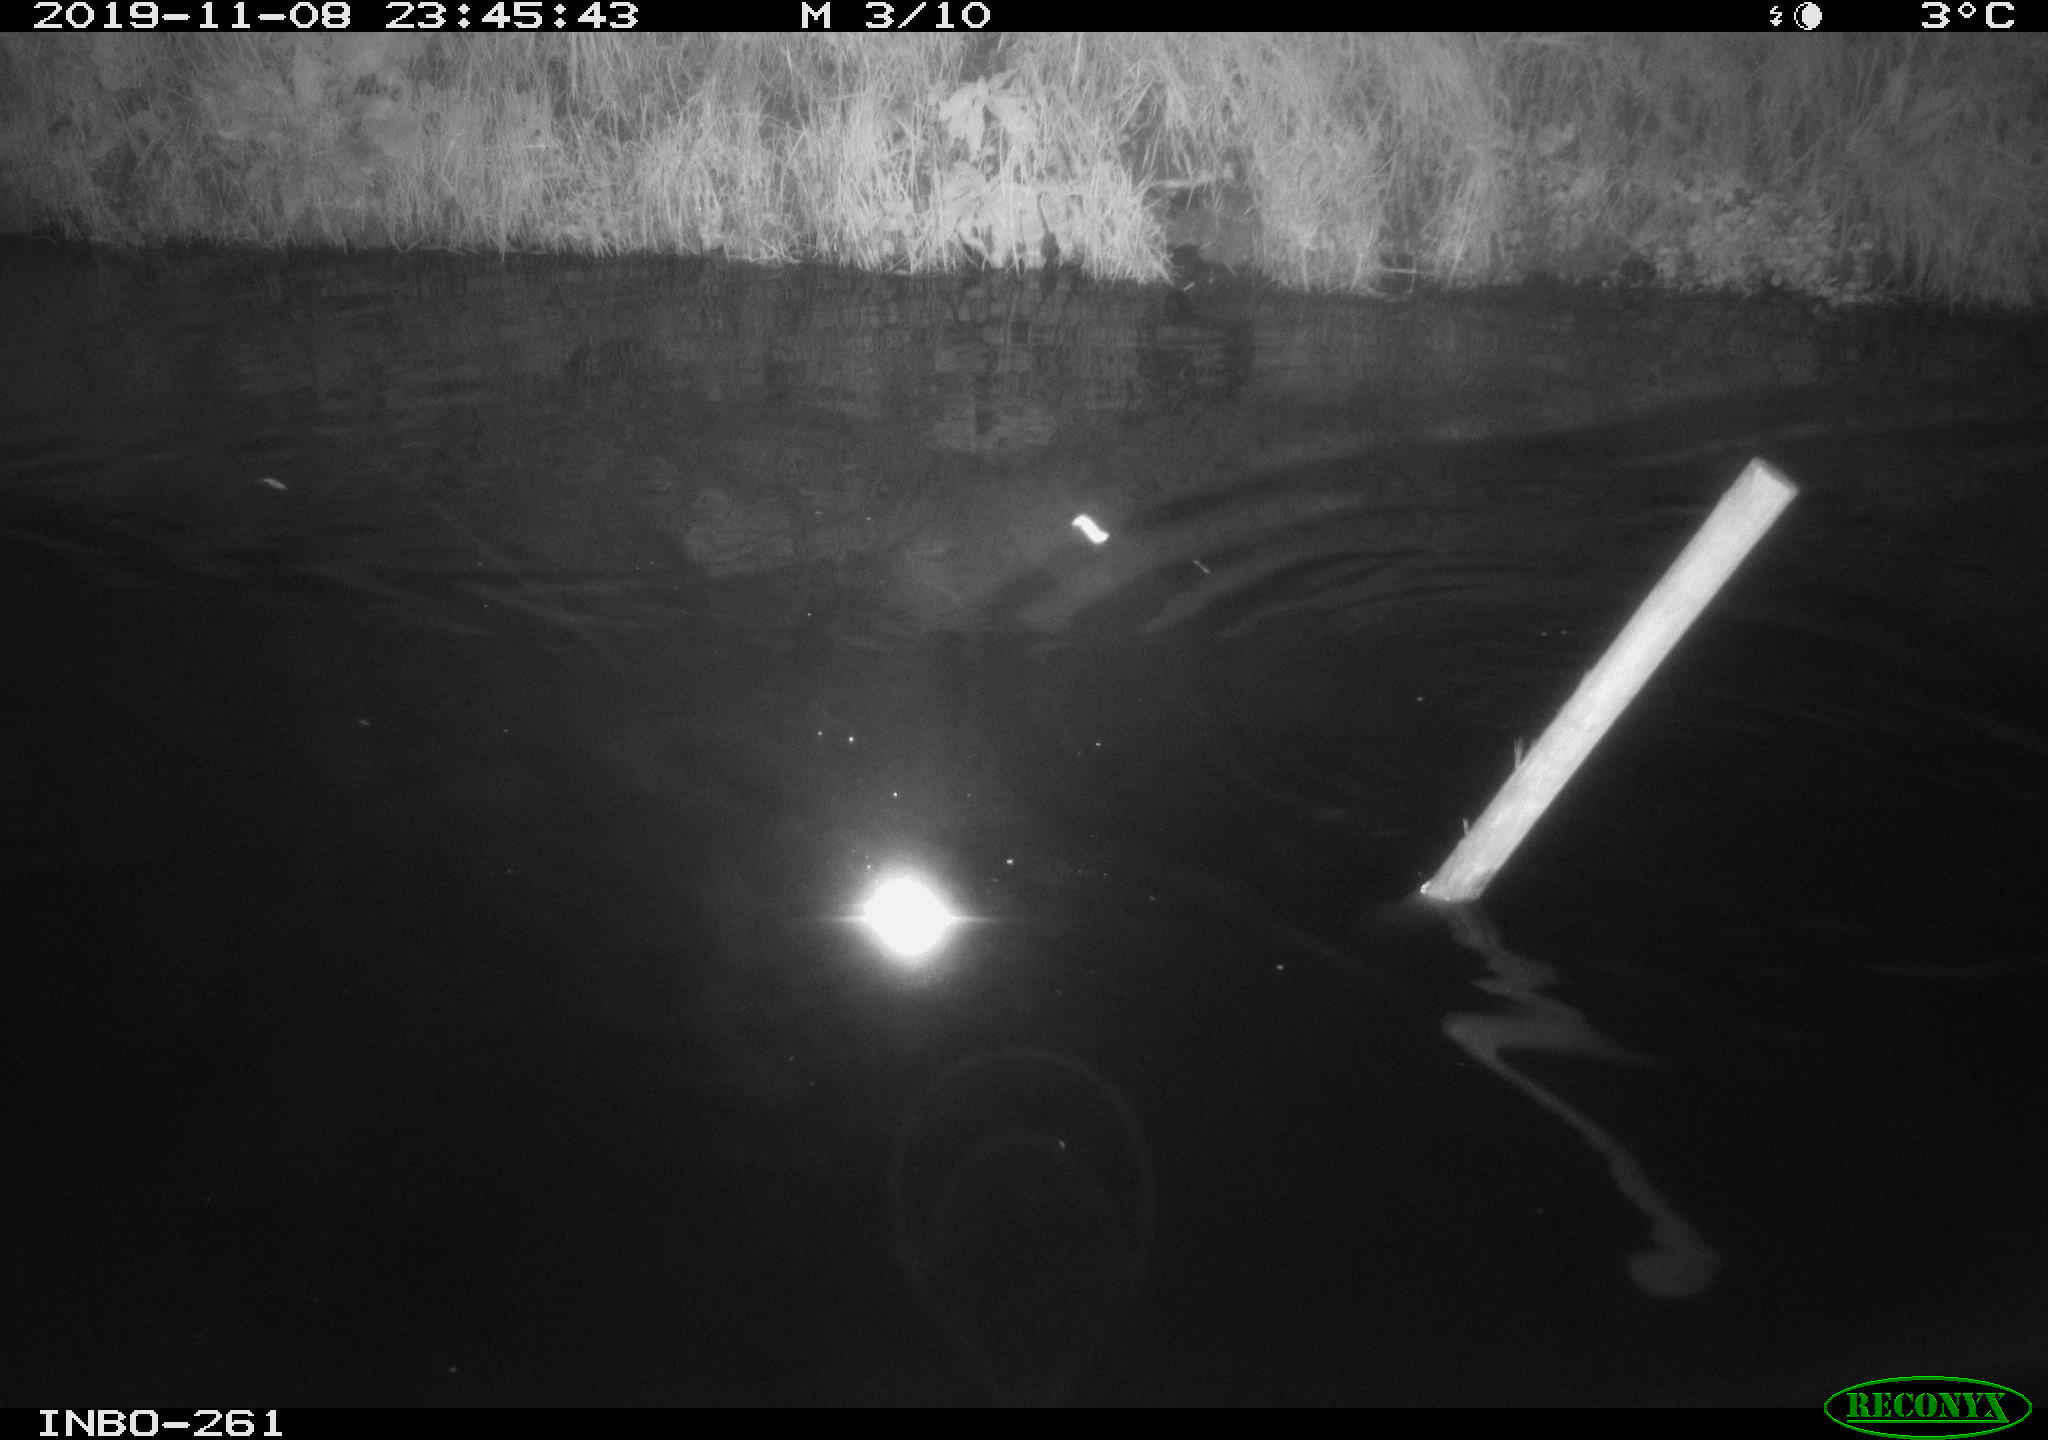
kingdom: Animalia
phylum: Chordata
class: Aves
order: Anseriformes
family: Anatidae
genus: Anas
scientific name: Anas platyrhynchos
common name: Mallard
